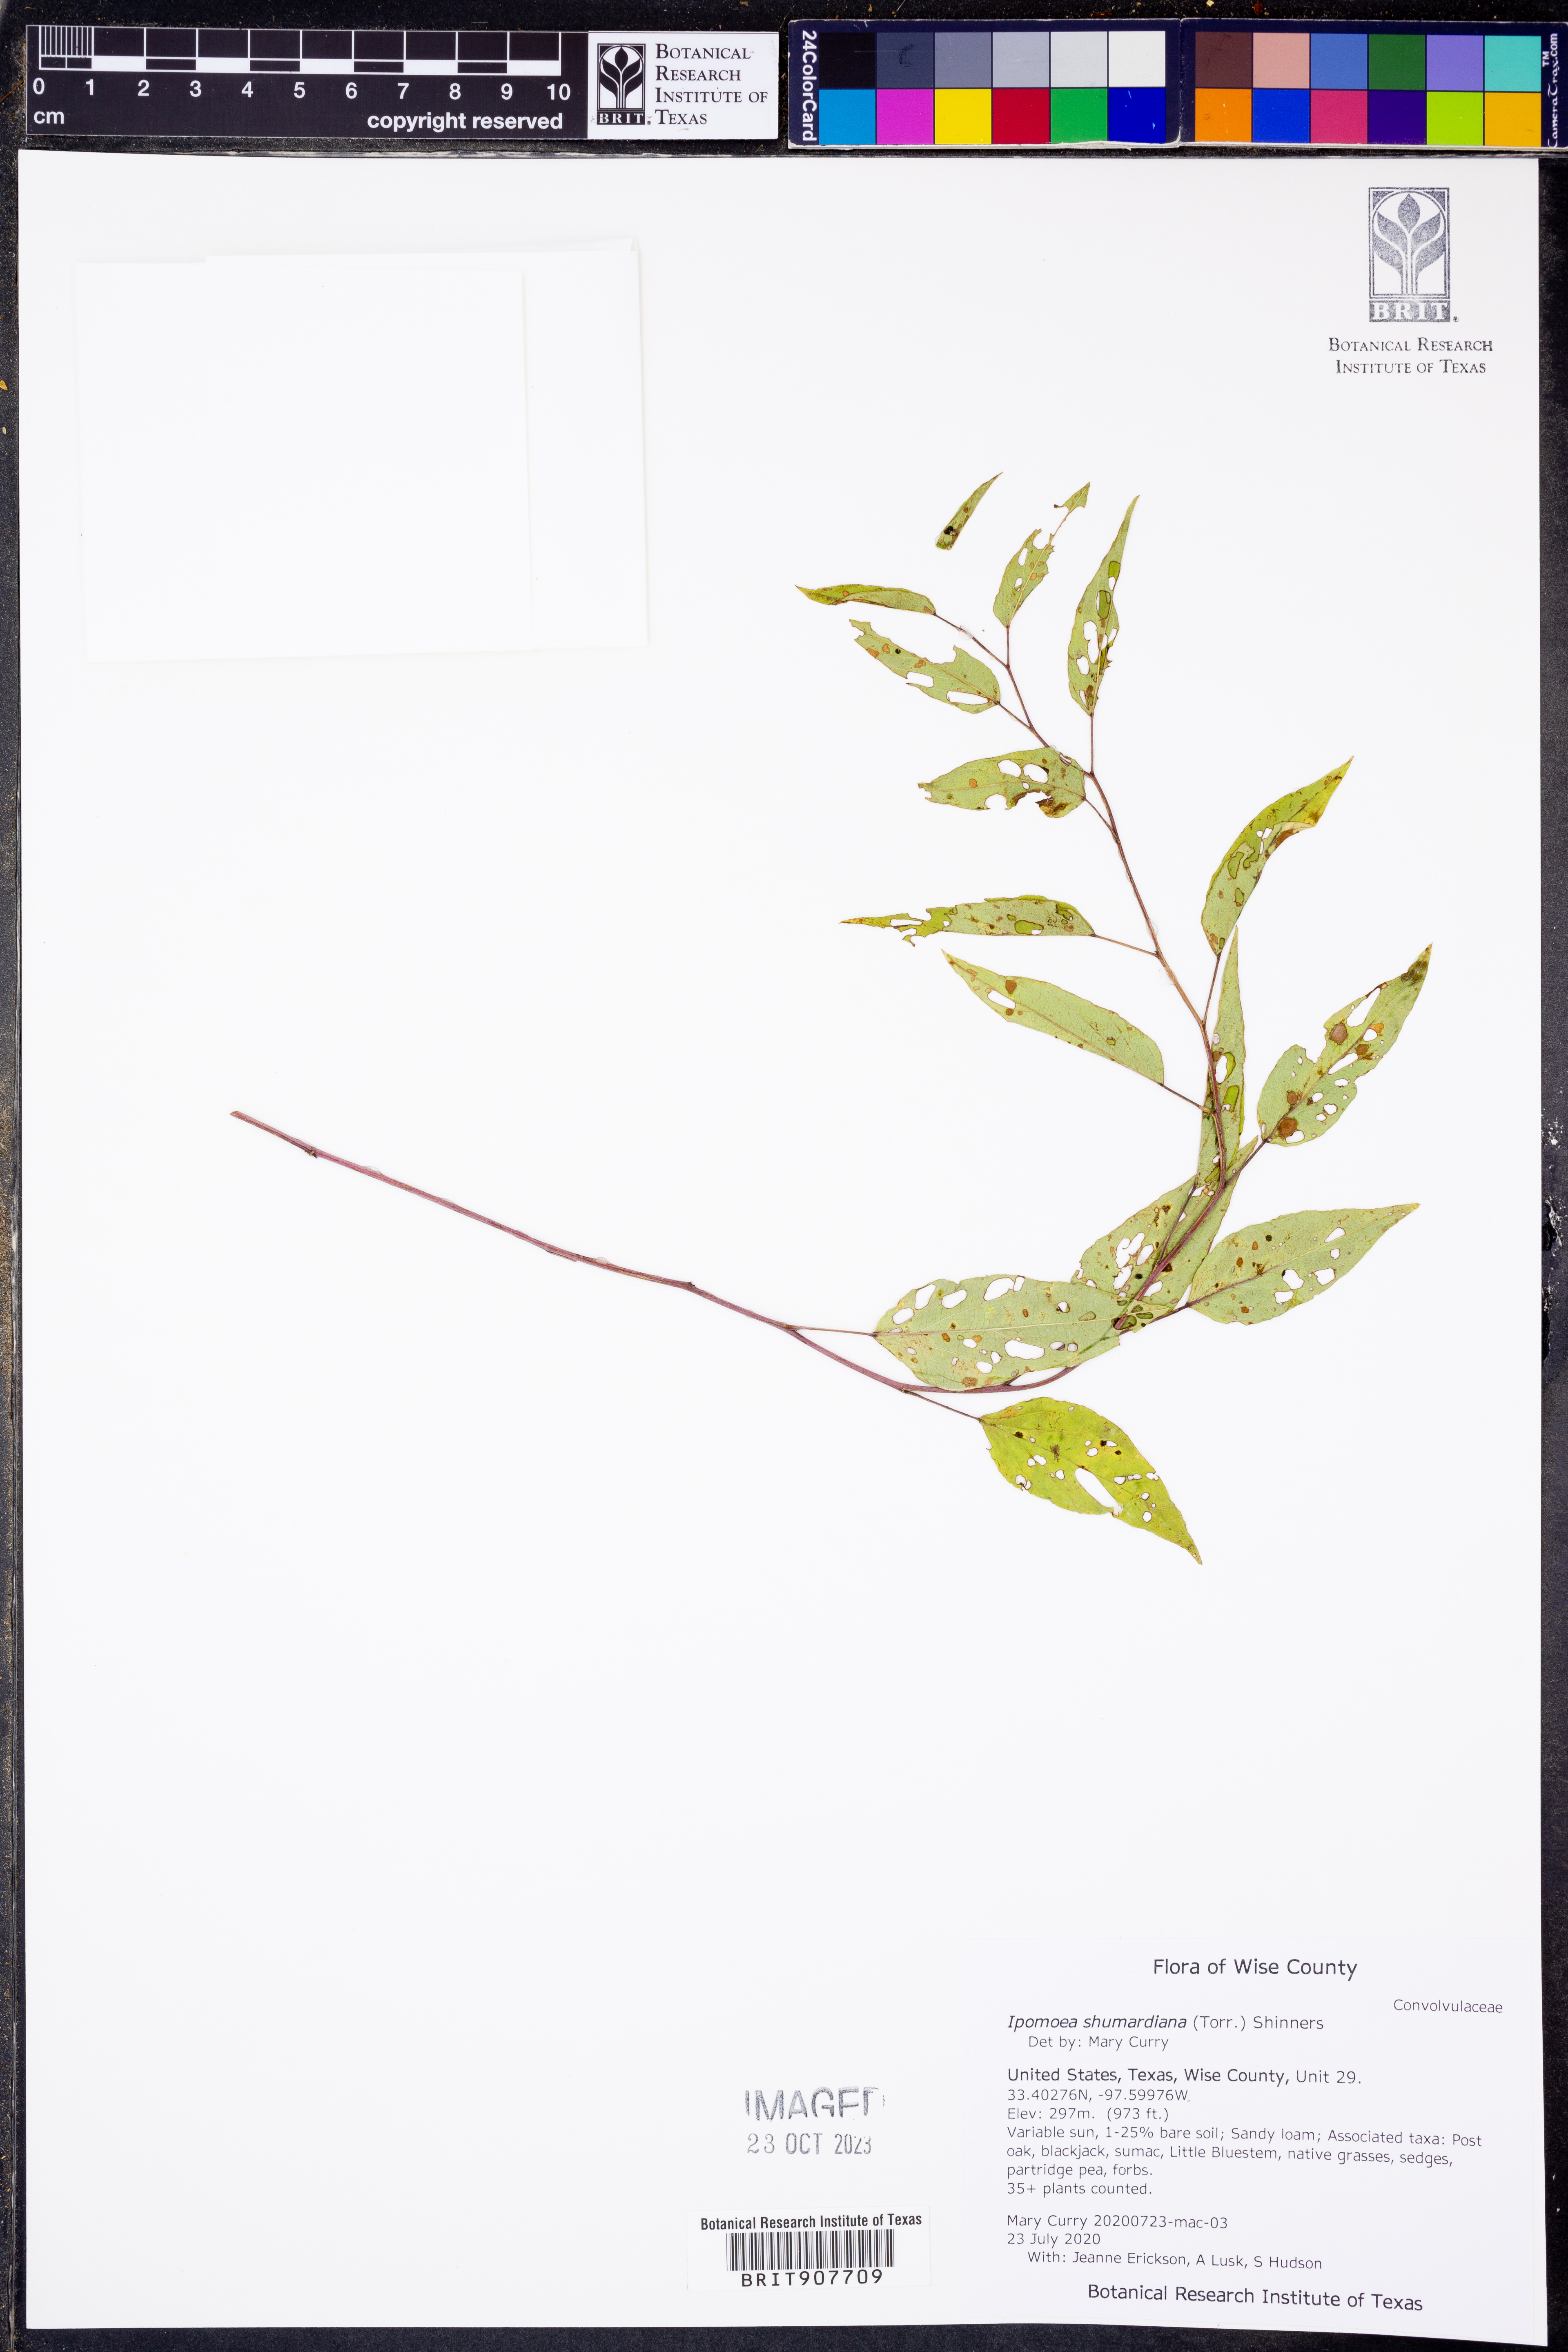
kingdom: Plantae
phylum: Tracheophyta
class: Magnoliopsida
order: Solanales
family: Convolvulaceae
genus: Ipomoea
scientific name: Ipomoea shumardiana
